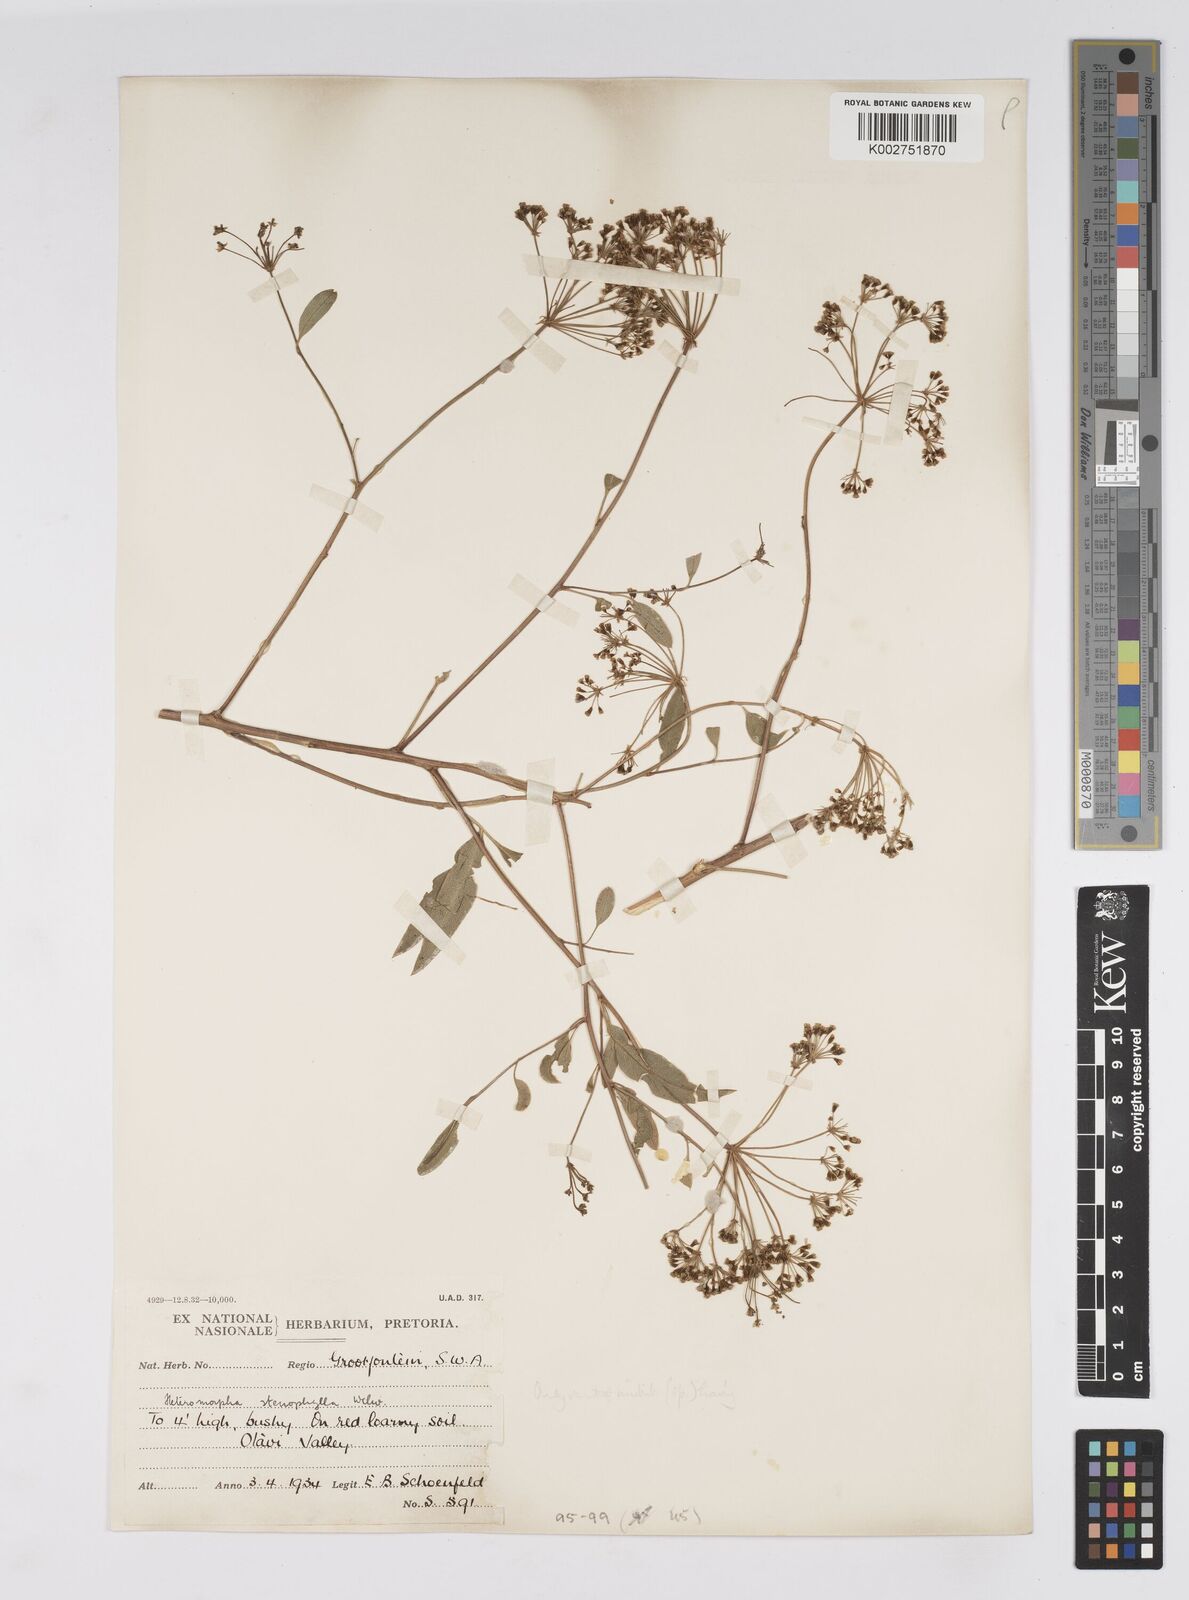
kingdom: Plantae
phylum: Tracheophyta
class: Magnoliopsida
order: Apiales
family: Apiaceae
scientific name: Apiaceae
